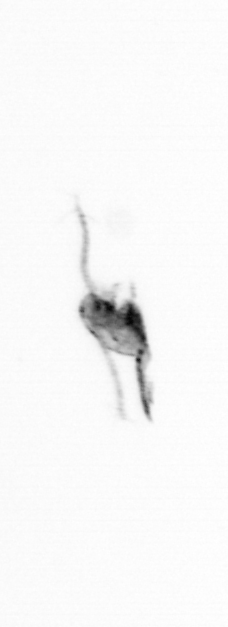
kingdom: Animalia
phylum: Arthropoda
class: Copepoda
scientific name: Copepoda
